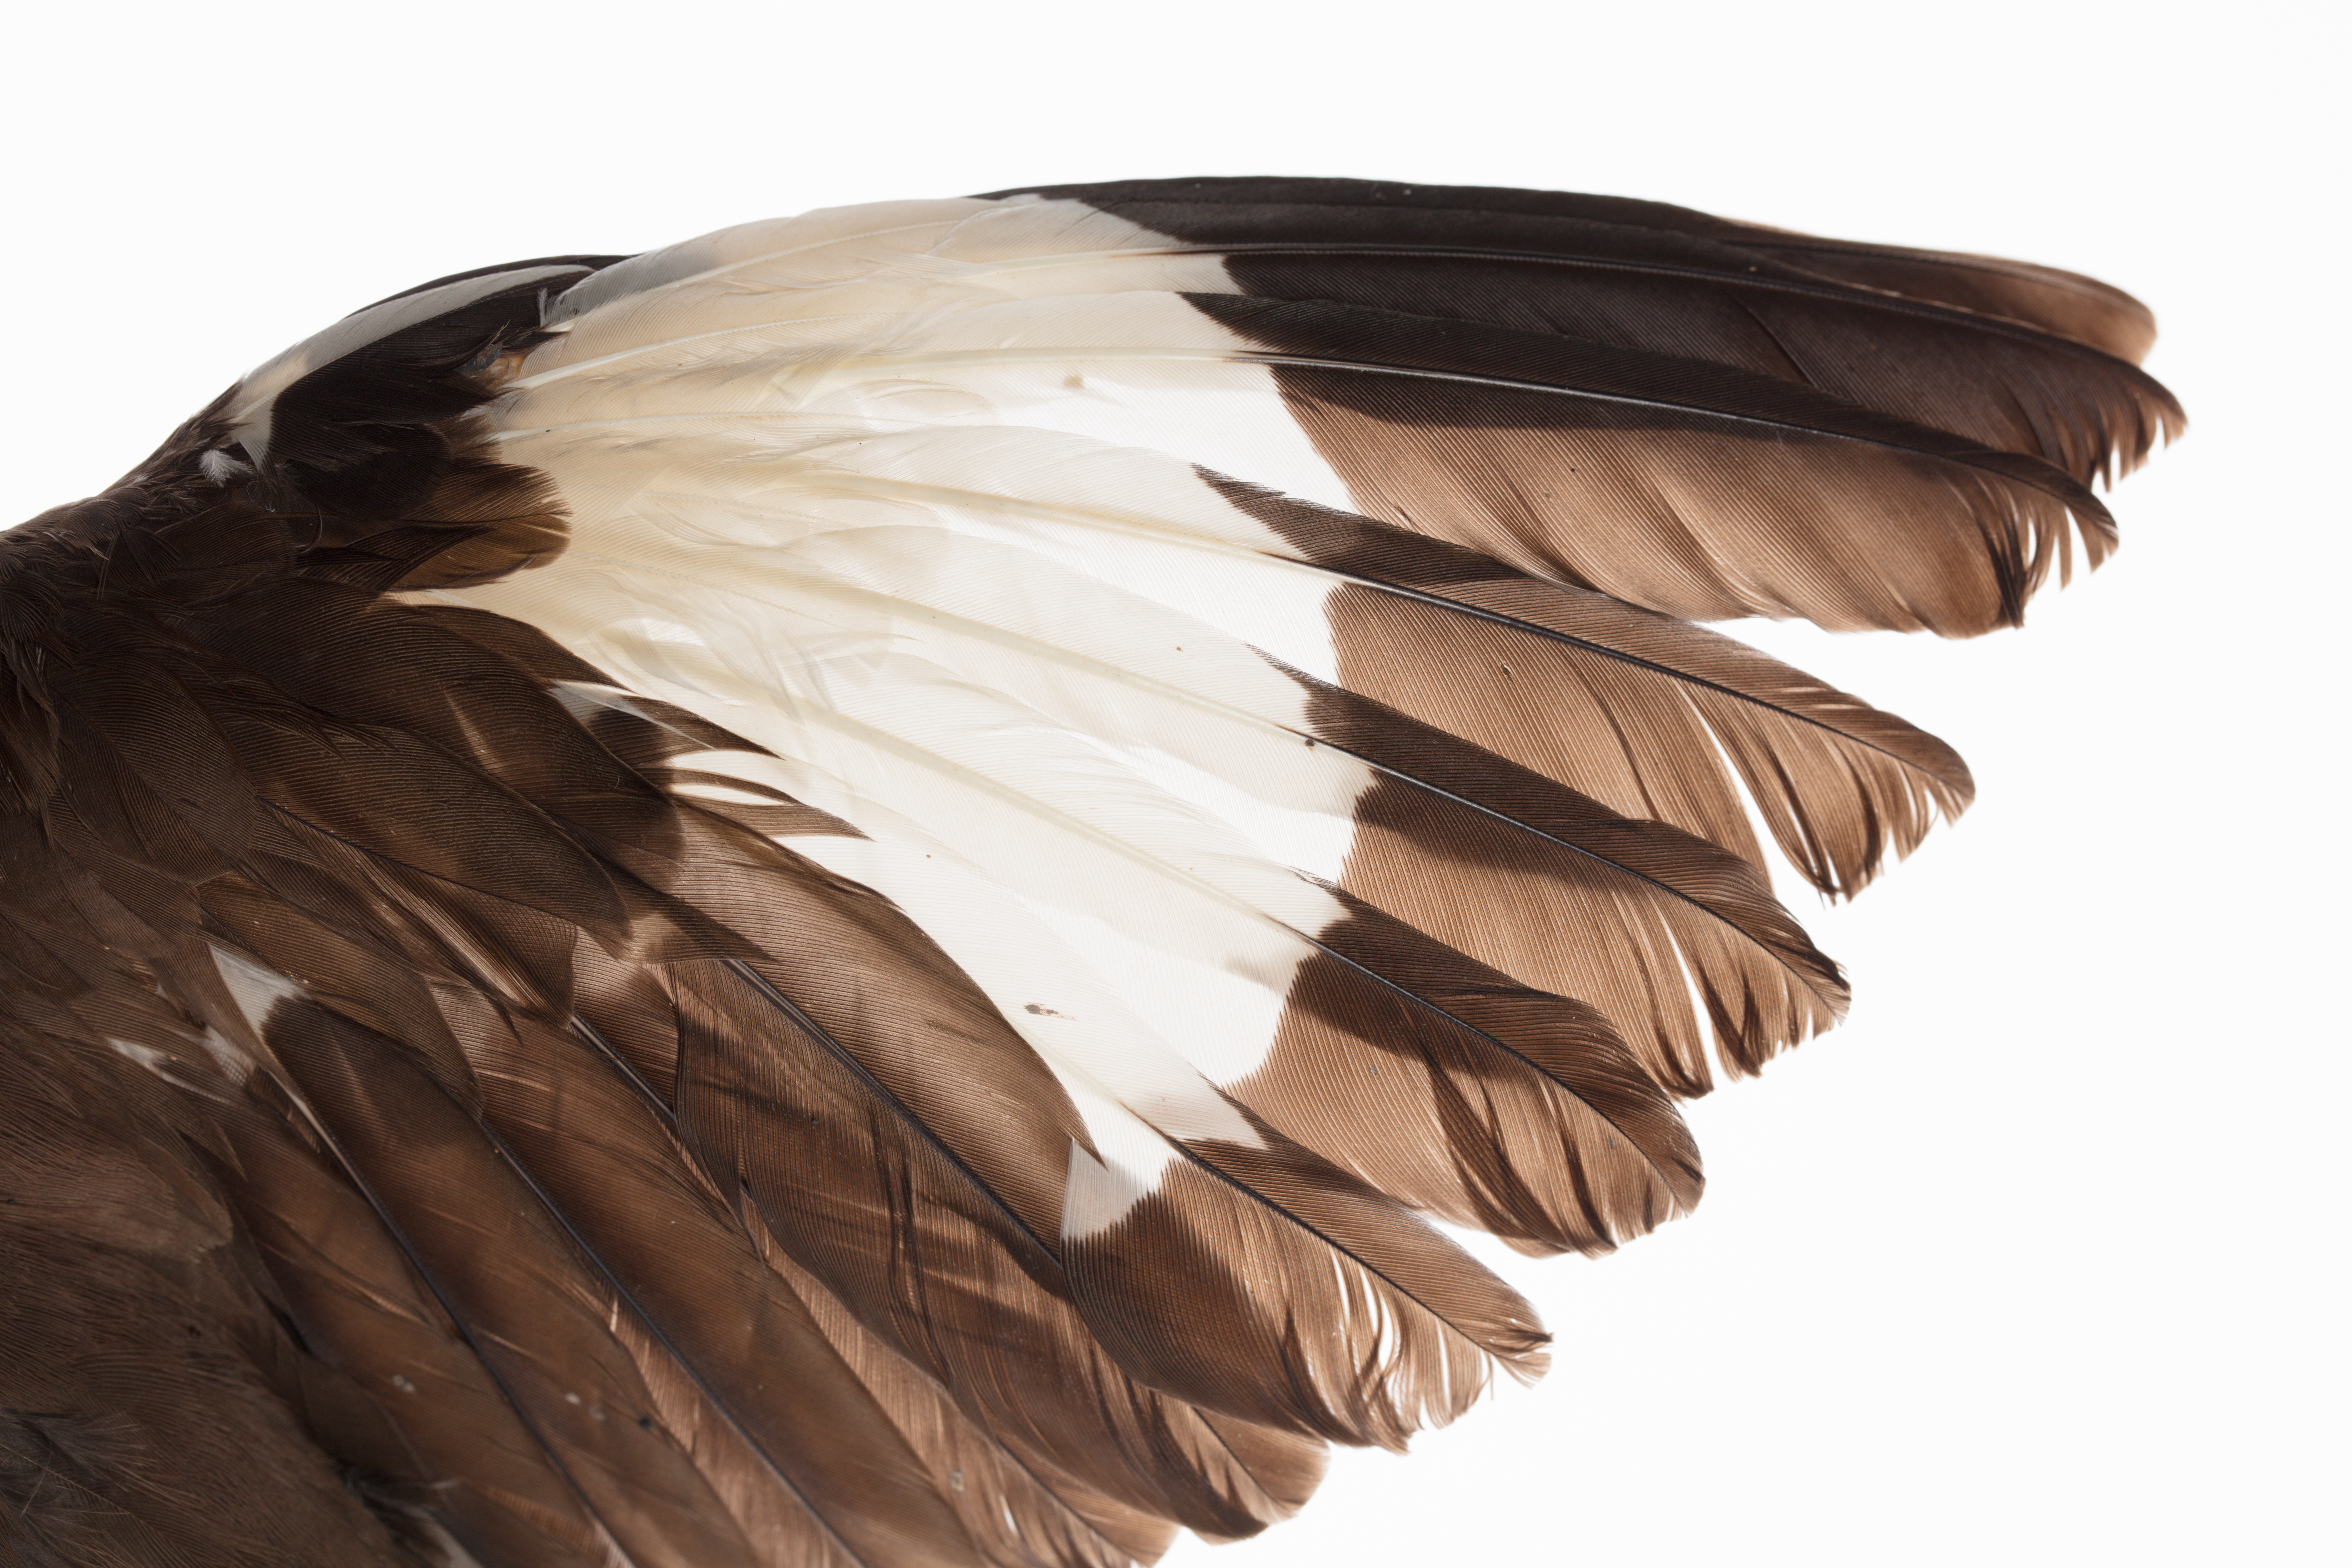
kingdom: Animalia
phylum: Chordata
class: Aves
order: Passeriformes
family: Sturnidae
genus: Acridotheres
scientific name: Acridotheres tristis
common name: Common myna
